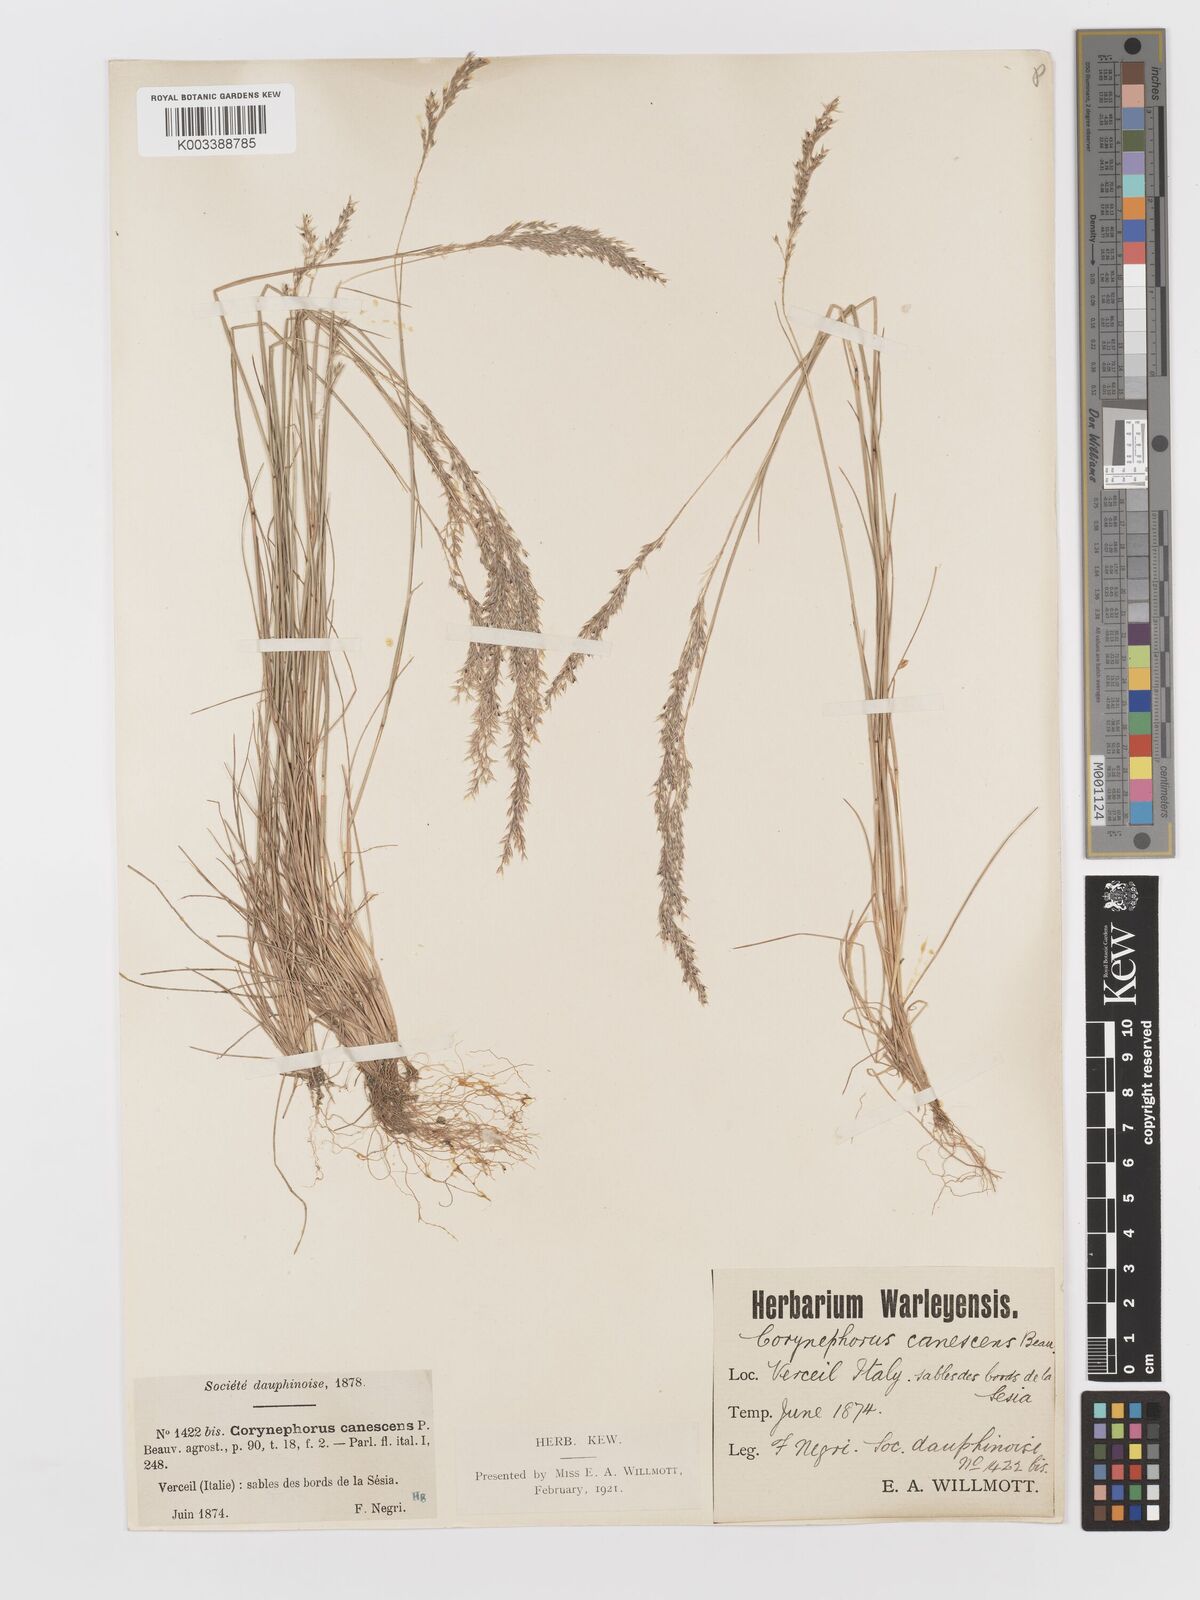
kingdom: Plantae
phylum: Tracheophyta
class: Liliopsida
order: Poales
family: Poaceae
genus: Corynephorus
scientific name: Corynephorus canescens
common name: Grey hair-grass
